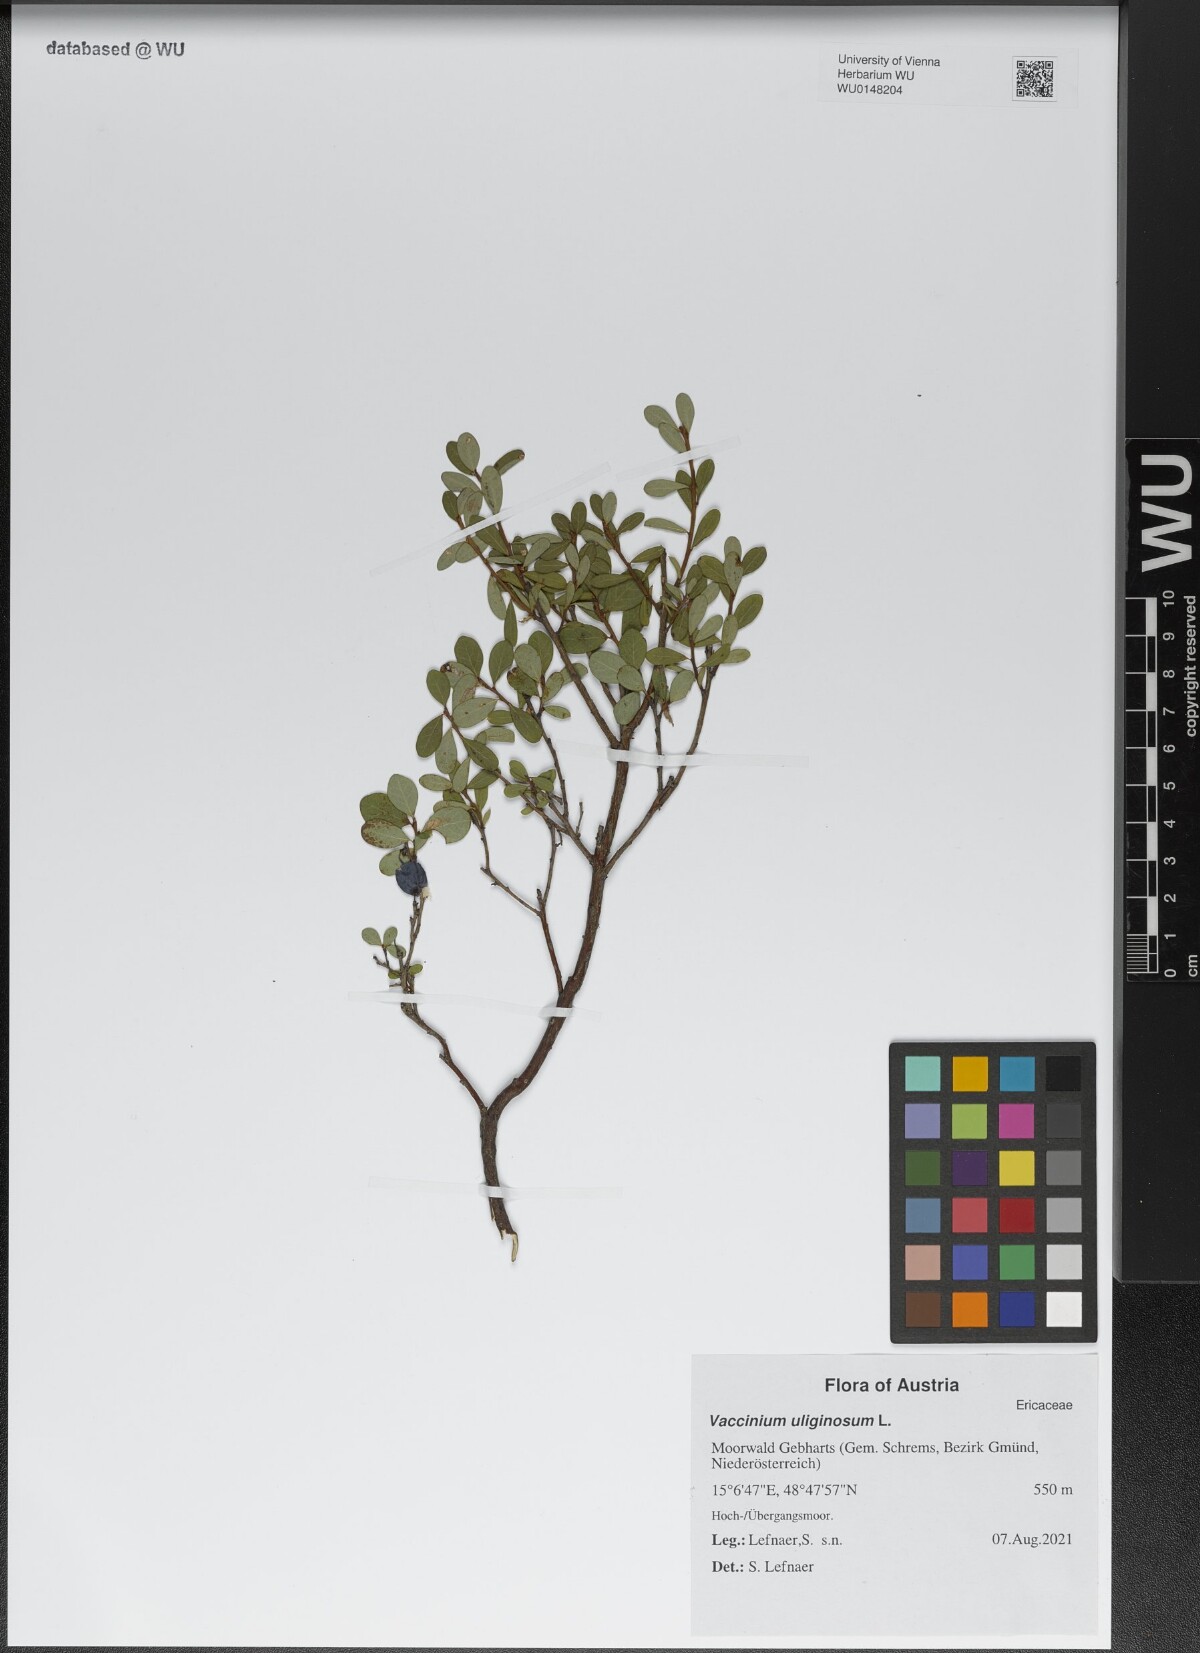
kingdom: Plantae
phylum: Tracheophyta
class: Magnoliopsida
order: Ericales
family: Ericaceae
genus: Vaccinium
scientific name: Vaccinium uliginosum
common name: Bog bilberry
